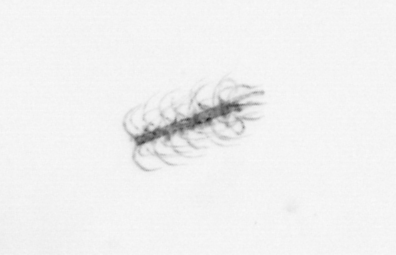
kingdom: Chromista
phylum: Ochrophyta
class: Bacillariophyceae
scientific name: Bacillariophyceae
